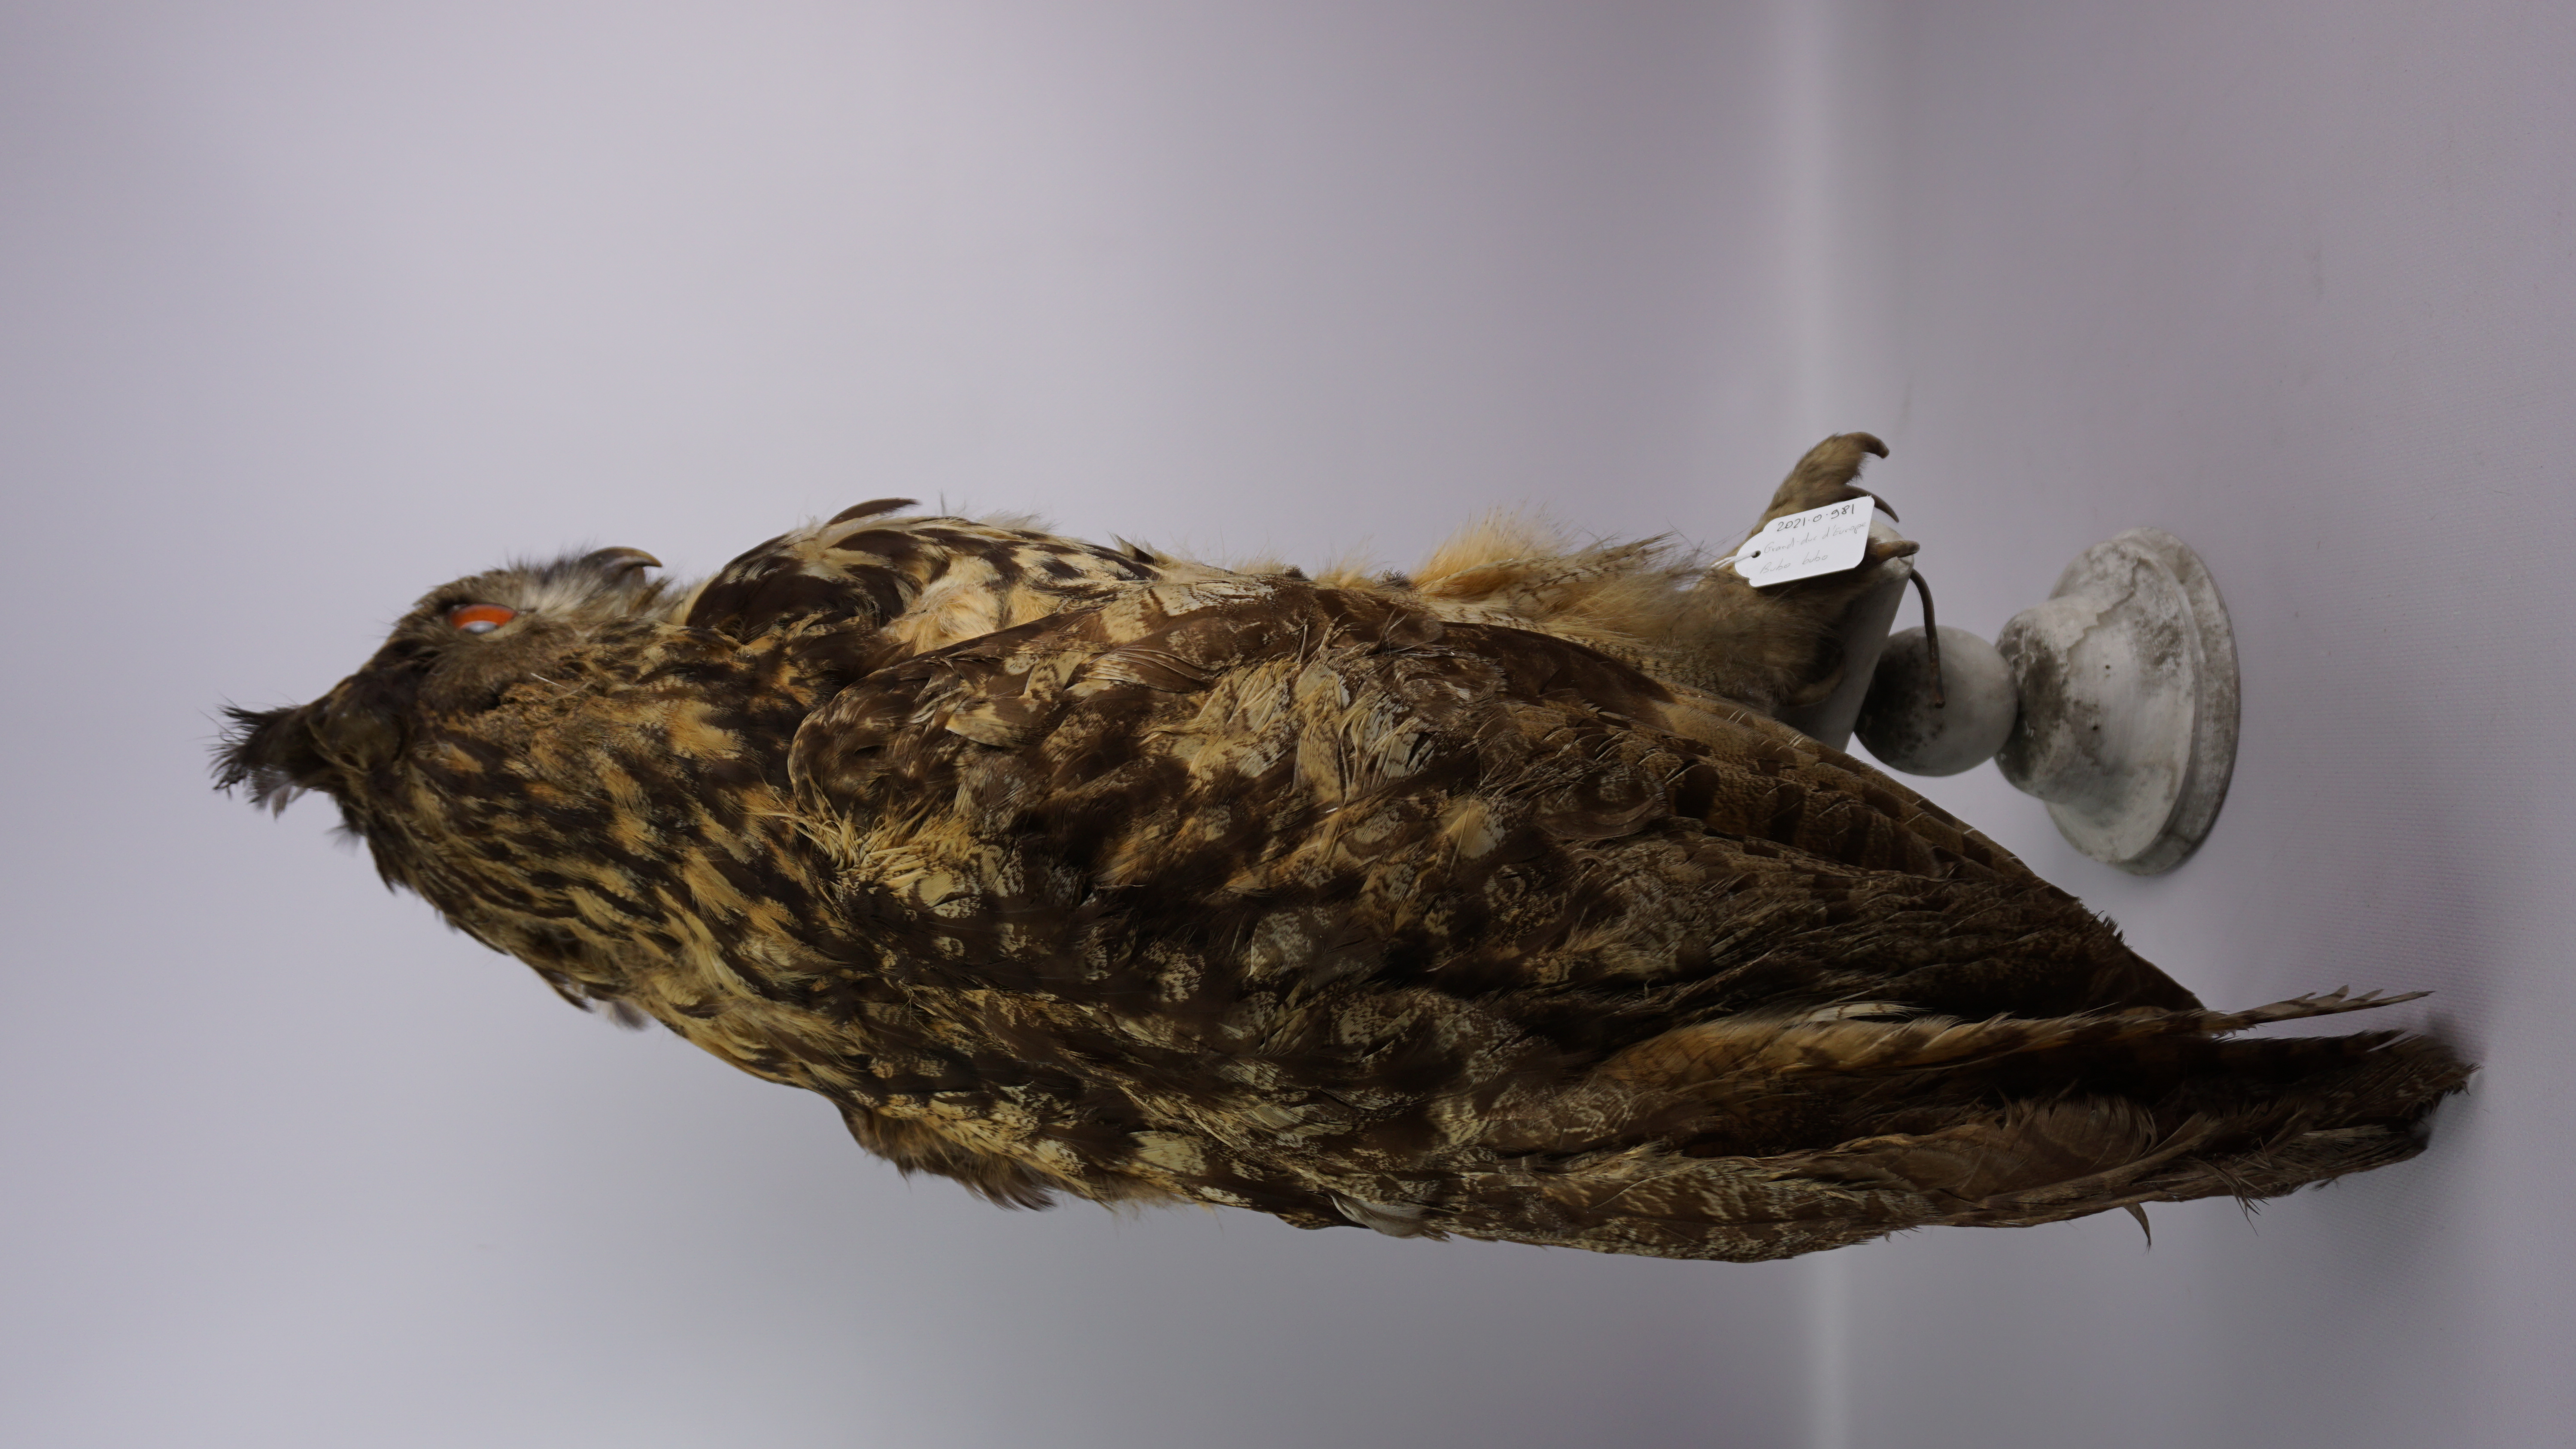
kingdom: Animalia
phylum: Chordata
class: Aves
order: Strigiformes
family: Strigidae
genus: Bubo
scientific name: Bubo bubo
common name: Eurasian eagle-owl
